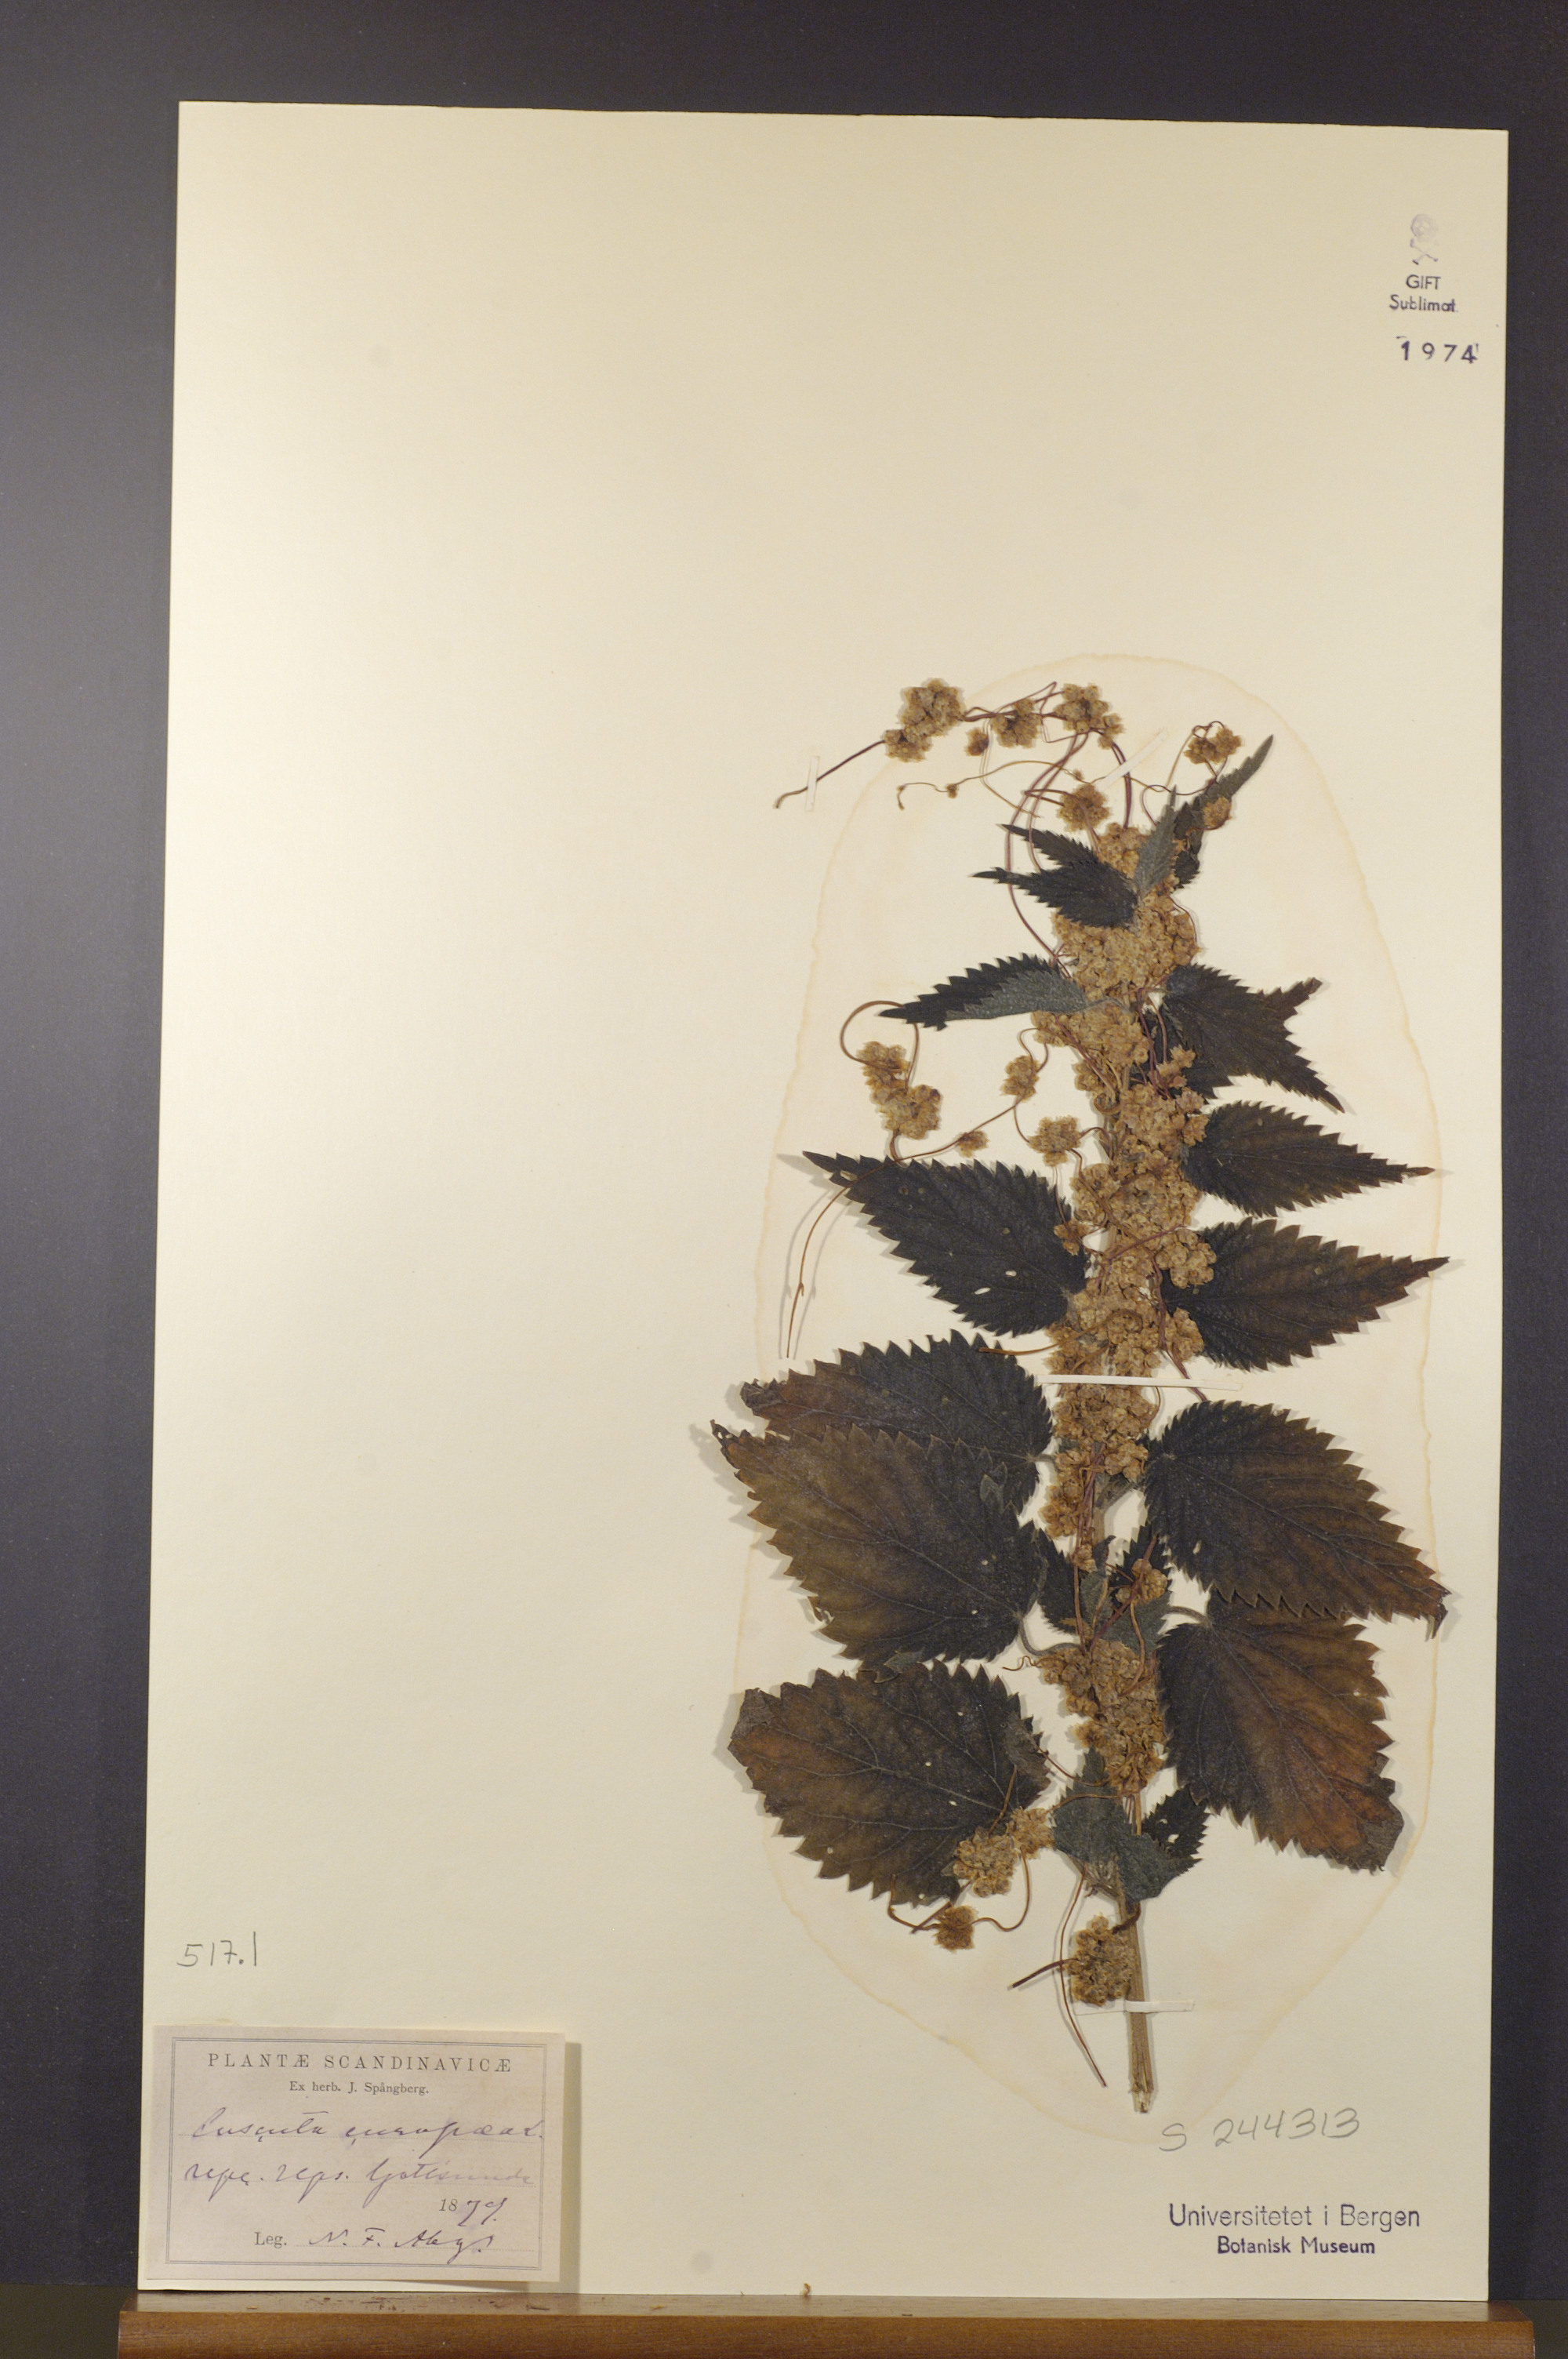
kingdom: Plantae
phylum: Tracheophyta
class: Magnoliopsida
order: Solanales
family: Convolvulaceae
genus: Cuscuta
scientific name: Cuscuta europaea
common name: Greater dodder
